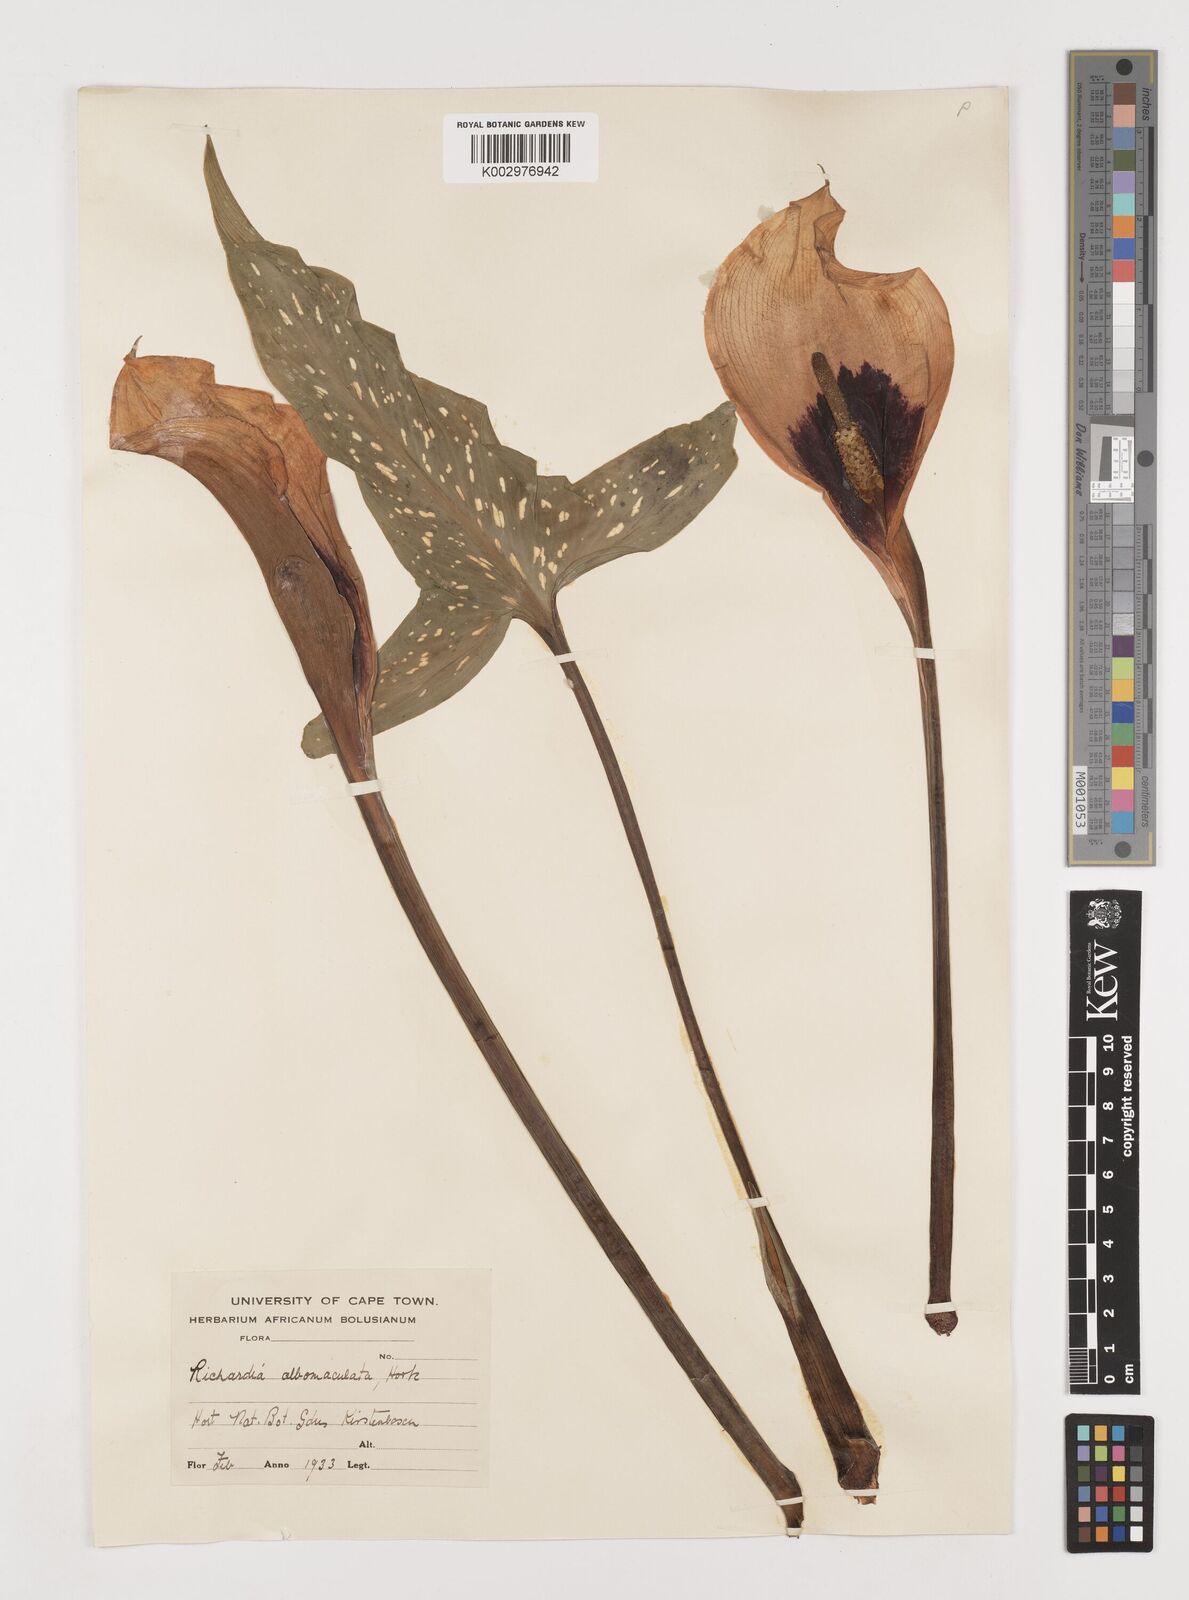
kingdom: Plantae
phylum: Tracheophyta
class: Liliopsida
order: Alismatales
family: Araceae
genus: Zantedeschia
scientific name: Zantedeschia albomaculata
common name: Spotted calla lily
